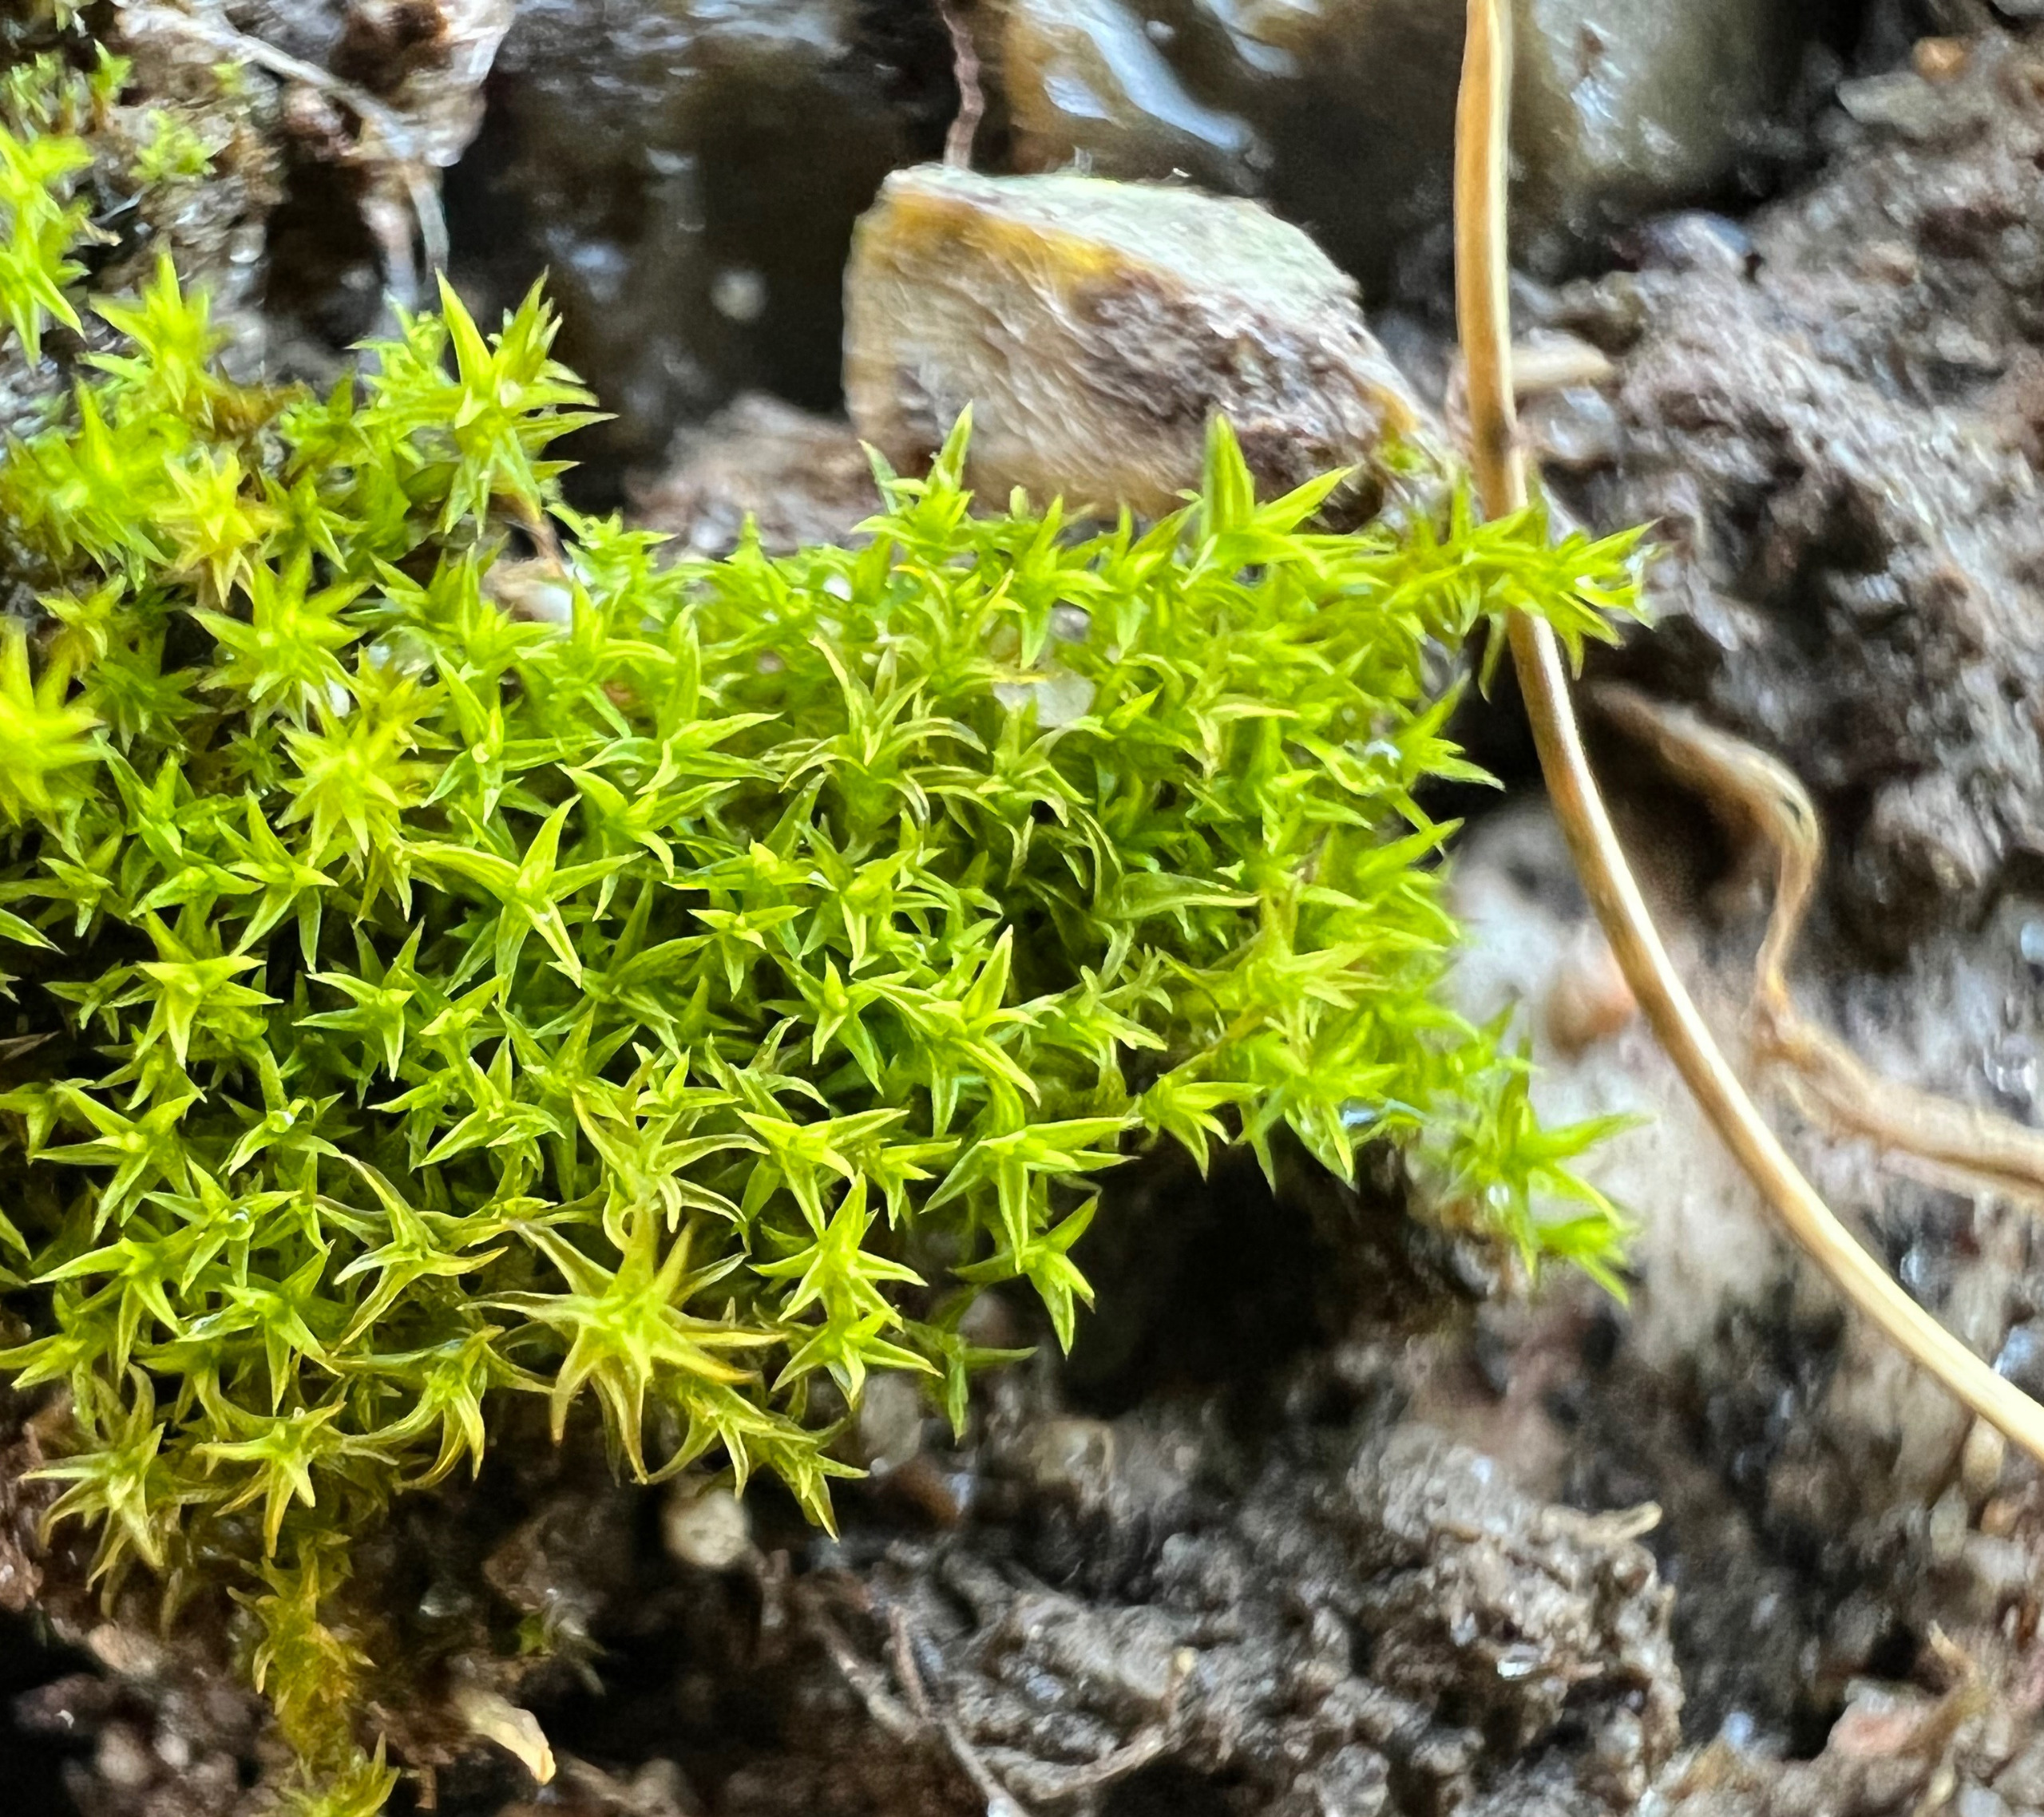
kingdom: Plantae
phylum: Bryophyta
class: Bryopsida
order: Pottiales
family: Pottiaceae
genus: Pseudocrossidium
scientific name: Pseudocrossidium hornschuchianum
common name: Spids rullerand
